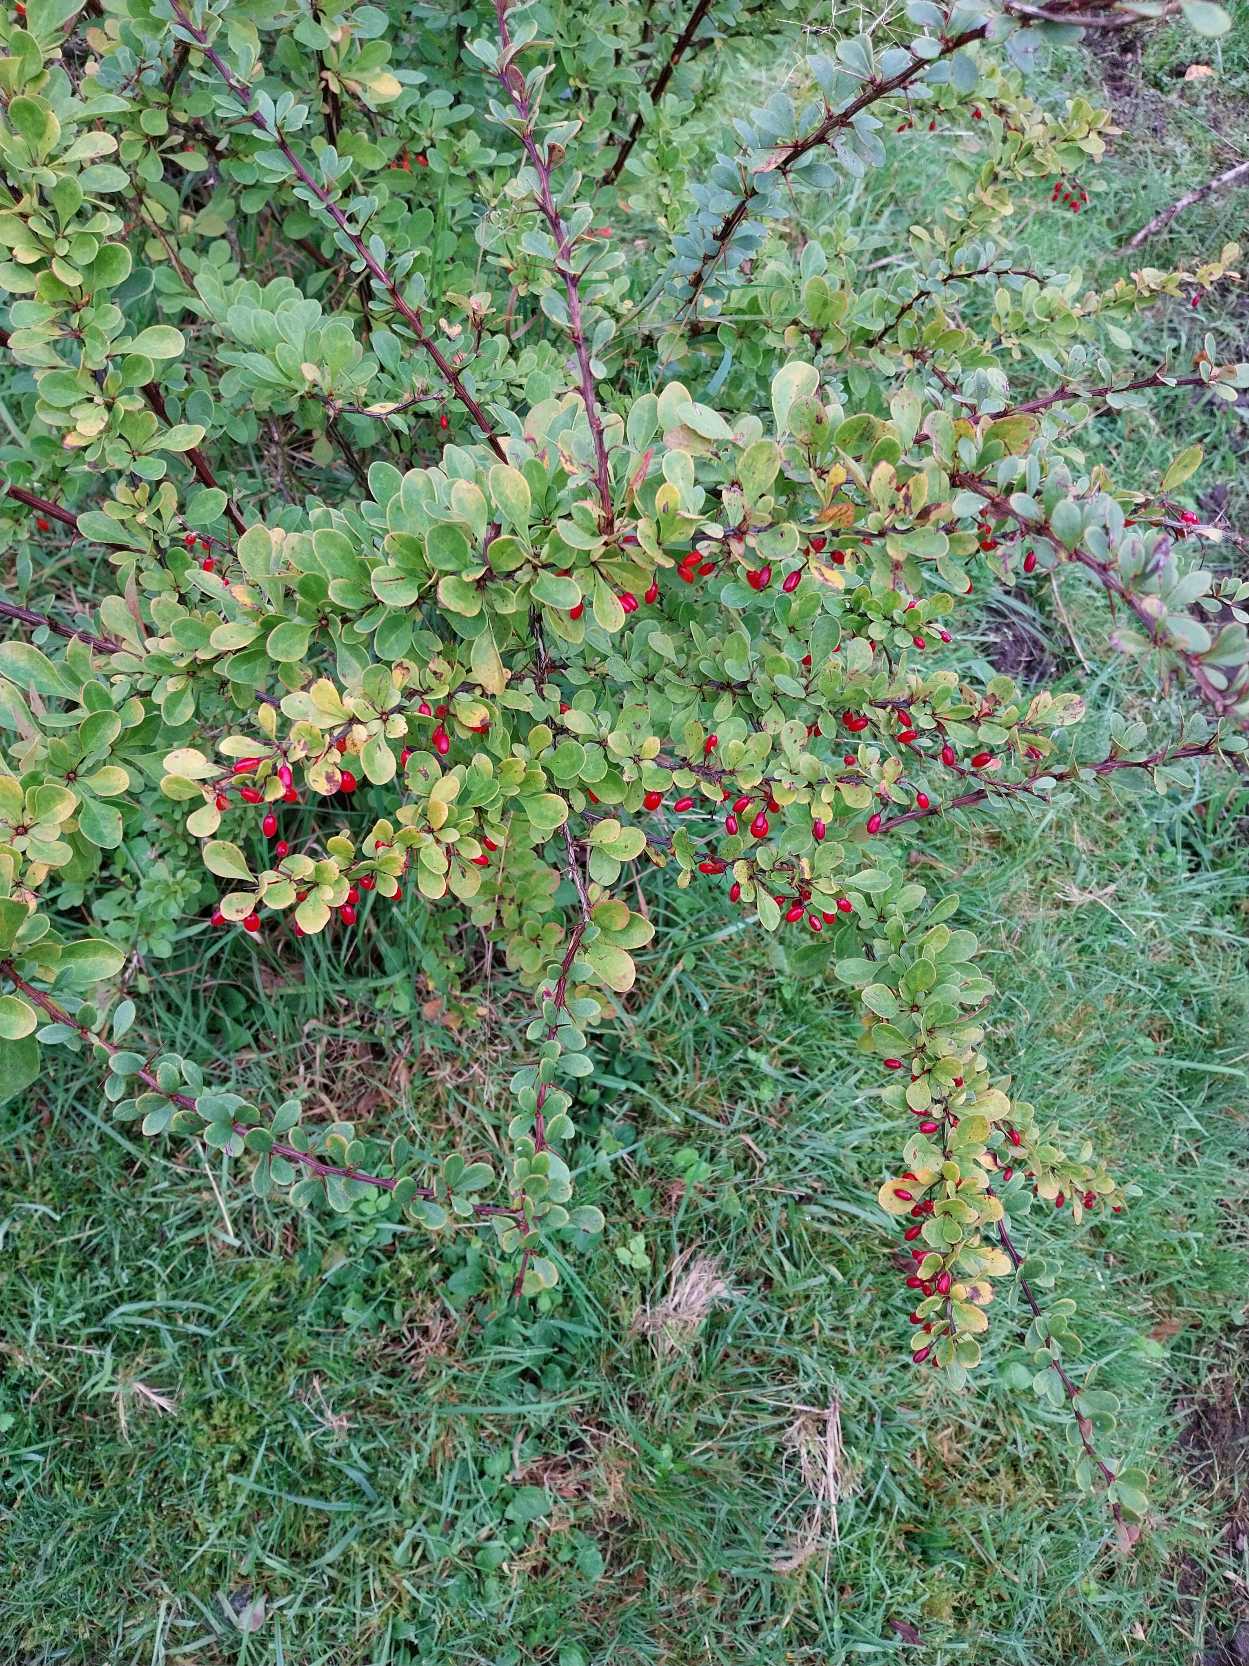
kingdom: Plantae
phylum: Tracheophyta
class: Magnoliopsida
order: Ranunculales
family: Berberidaceae
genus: Berberis
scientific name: Berberis thunbergii
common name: Hæk-berberis
